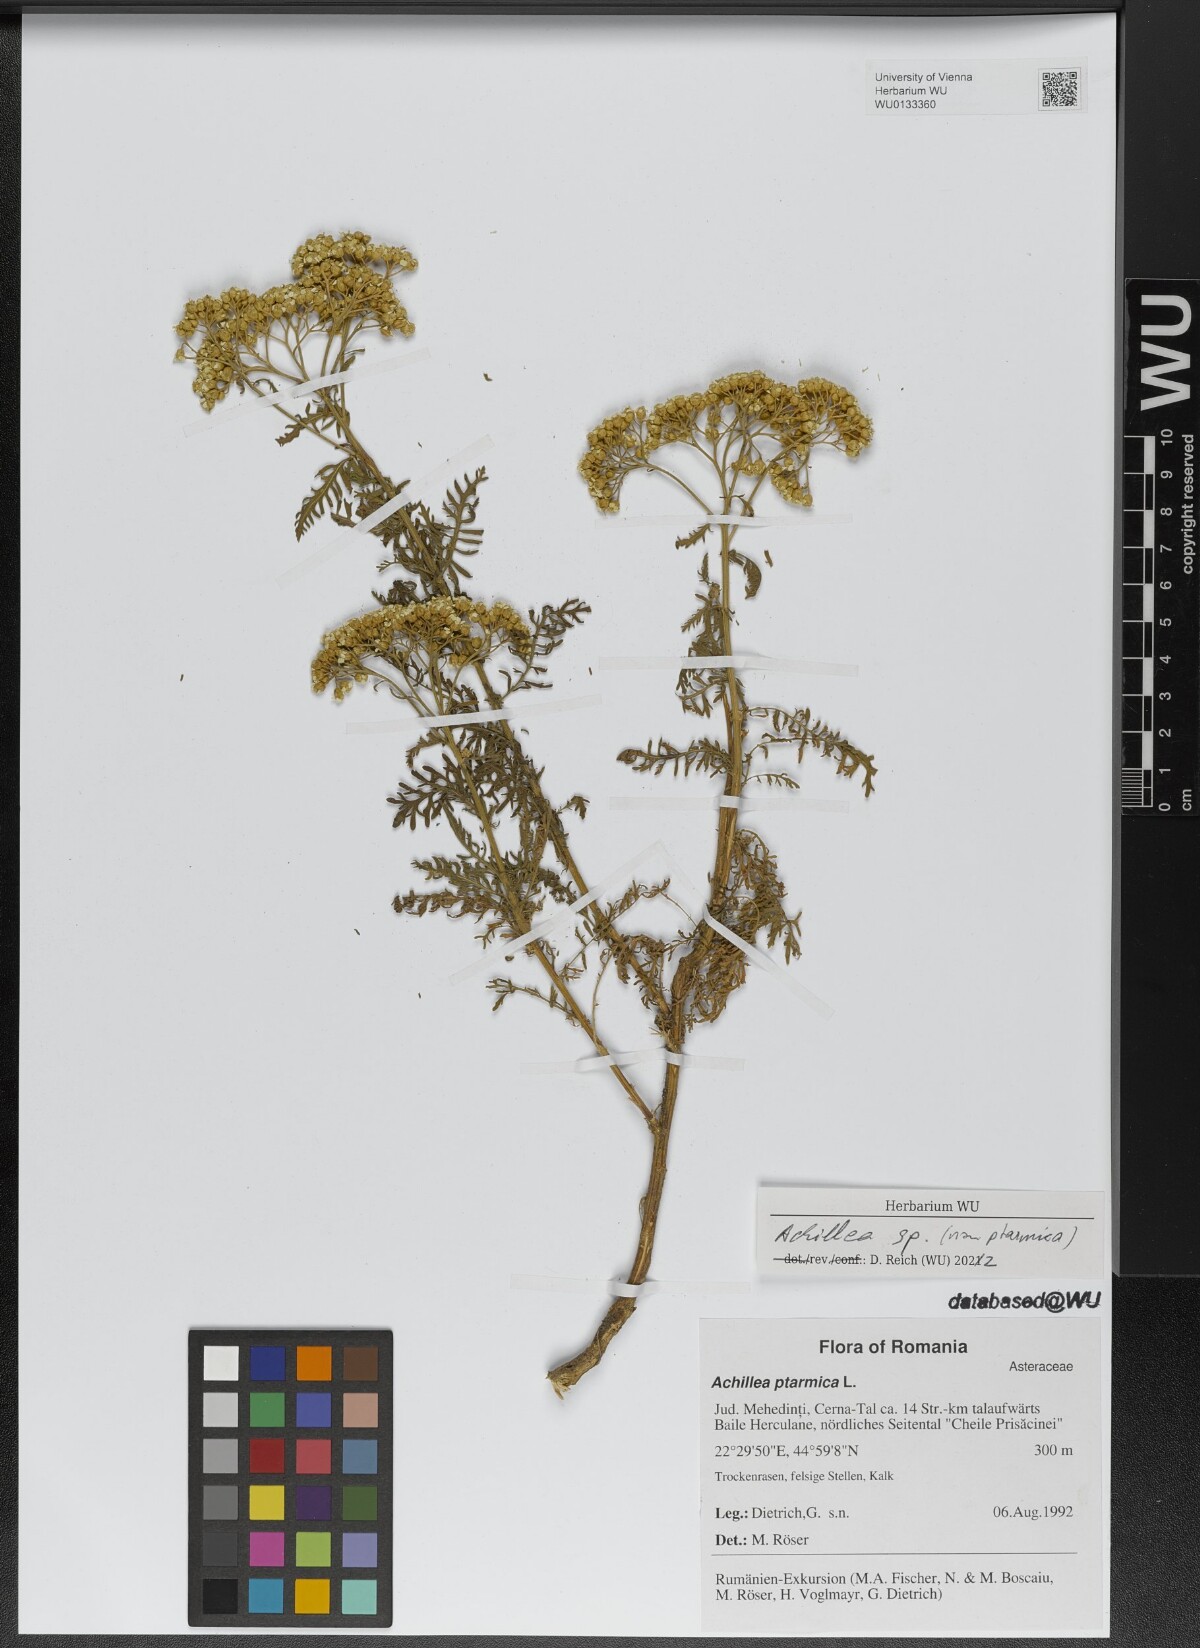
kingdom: Plantae
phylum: Tracheophyta
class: Magnoliopsida
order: Asterales
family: Asteraceae
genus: Achillea
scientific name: Achillea
